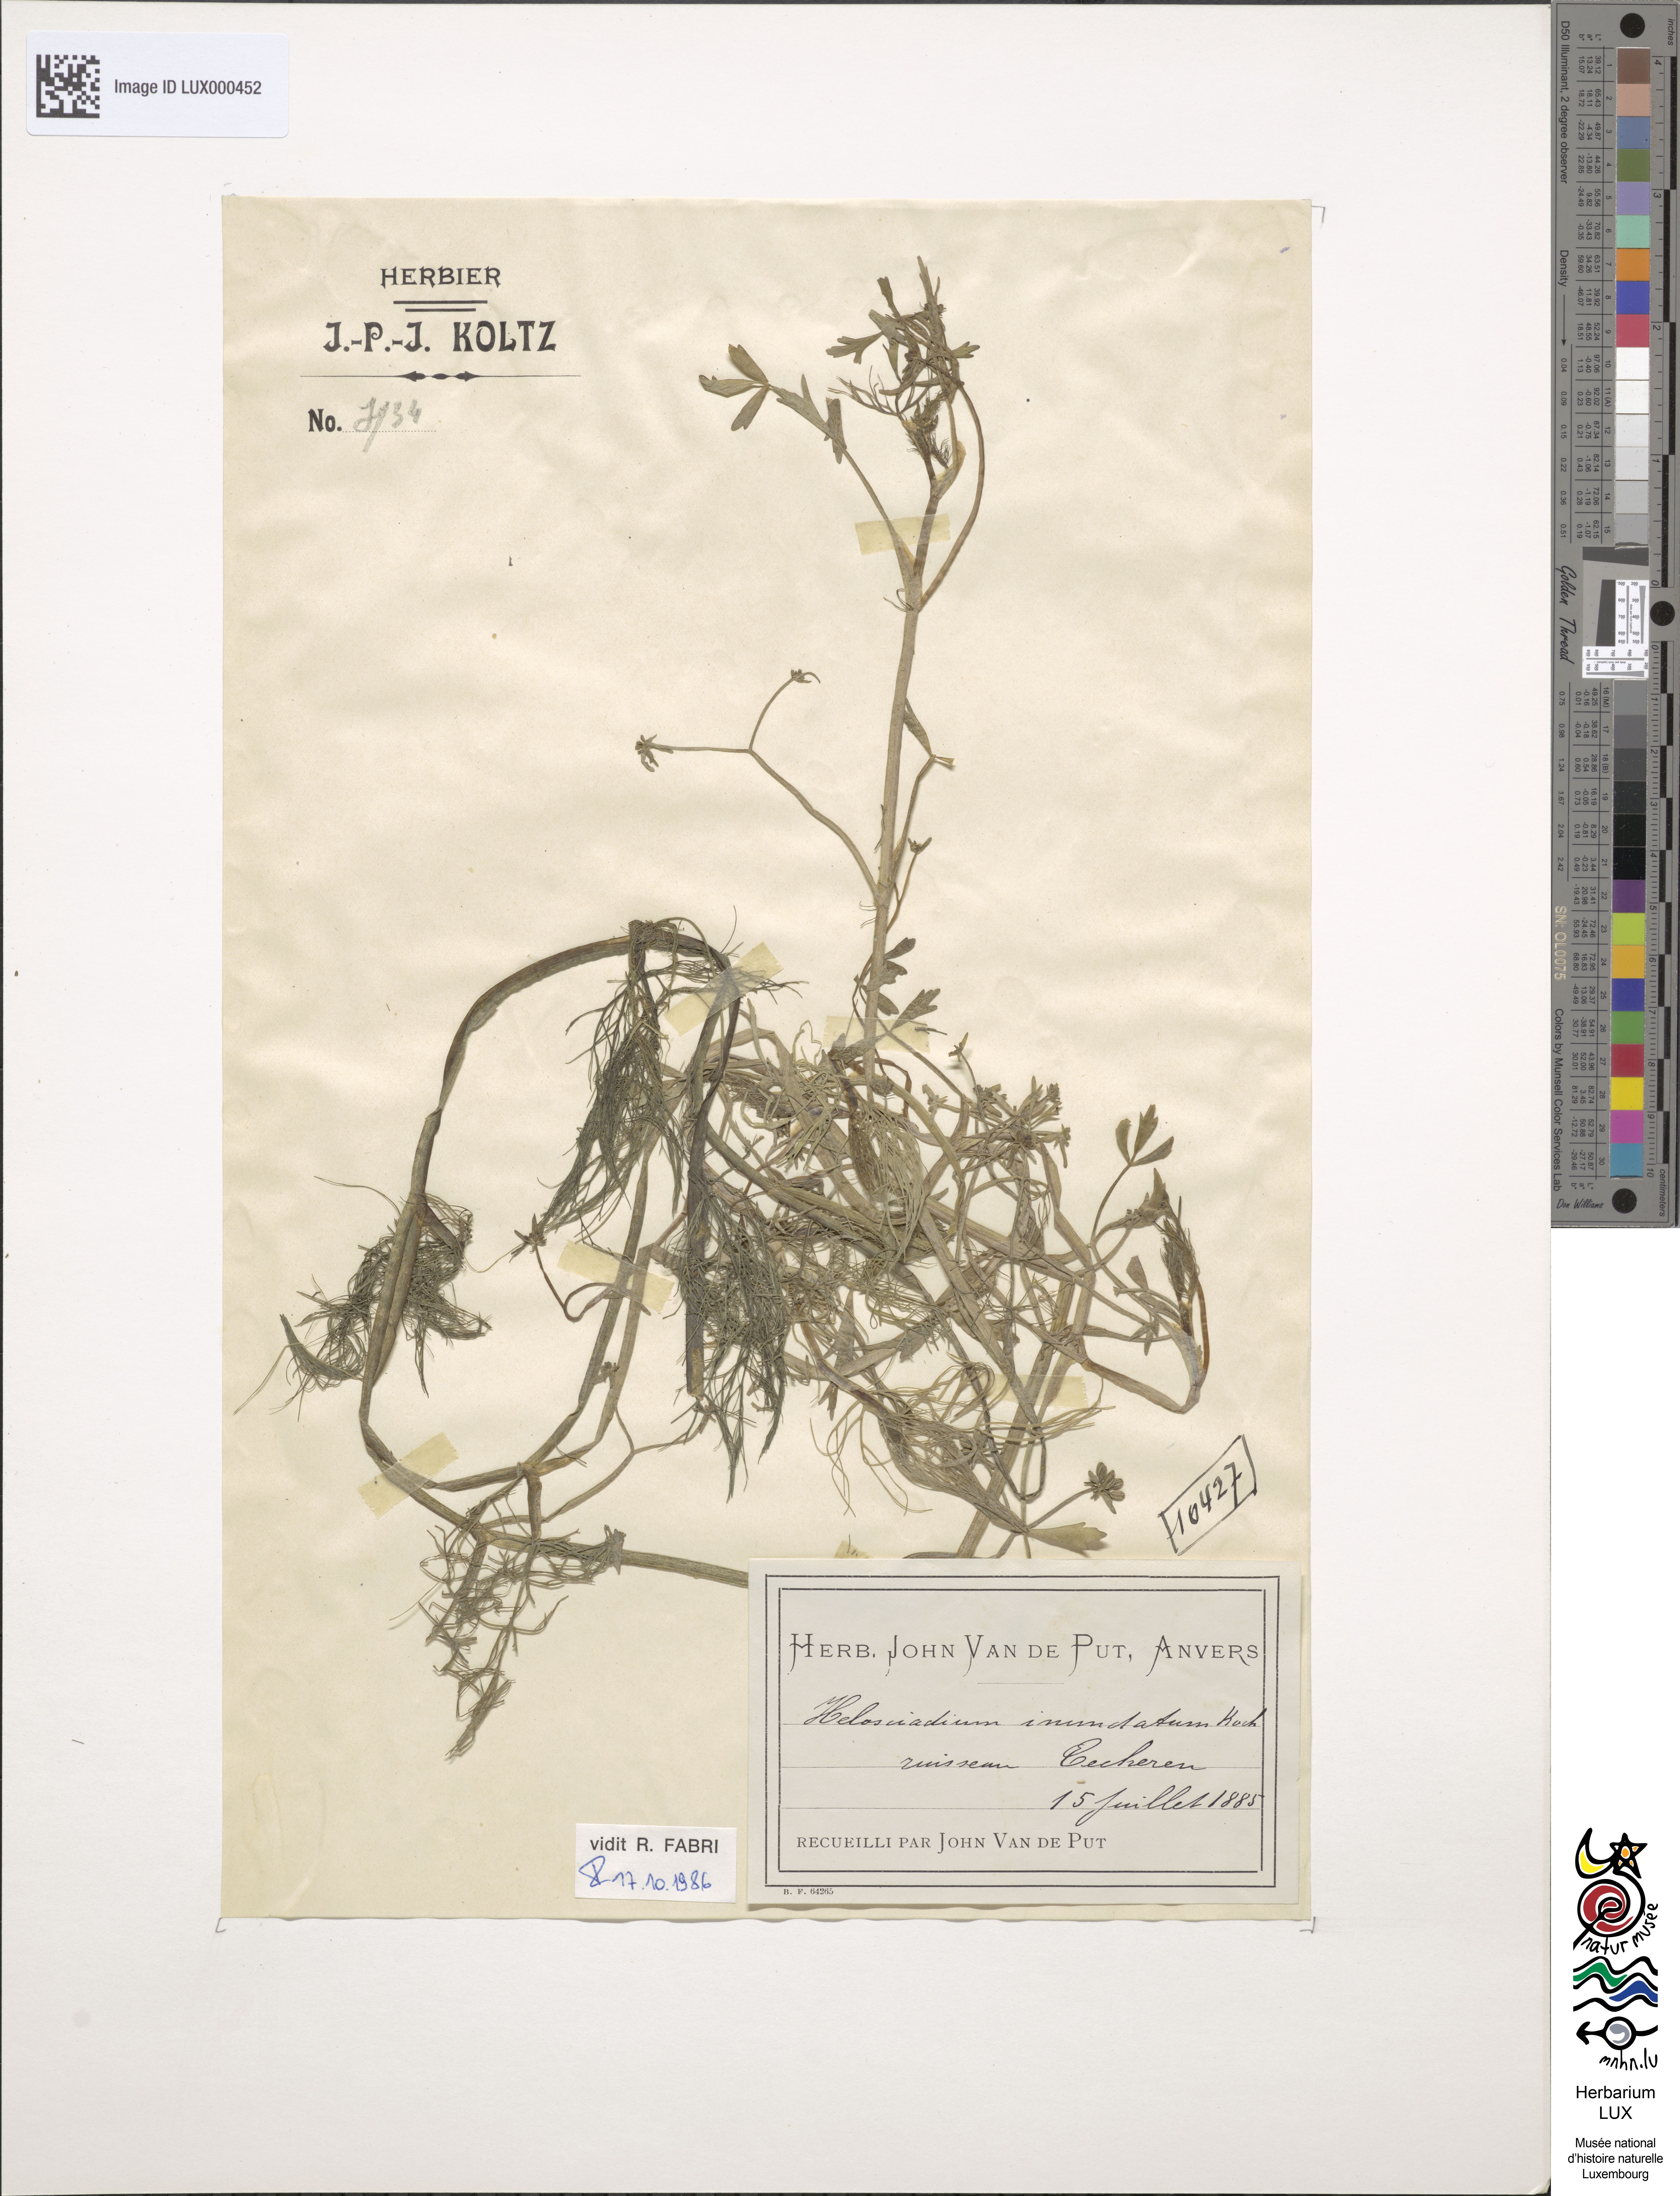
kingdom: Plantae
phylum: Tracheophyta
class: Magnoliopsida
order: Apiales
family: Apiaceae
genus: Helosciadium
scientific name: Helosciadium inundatum
